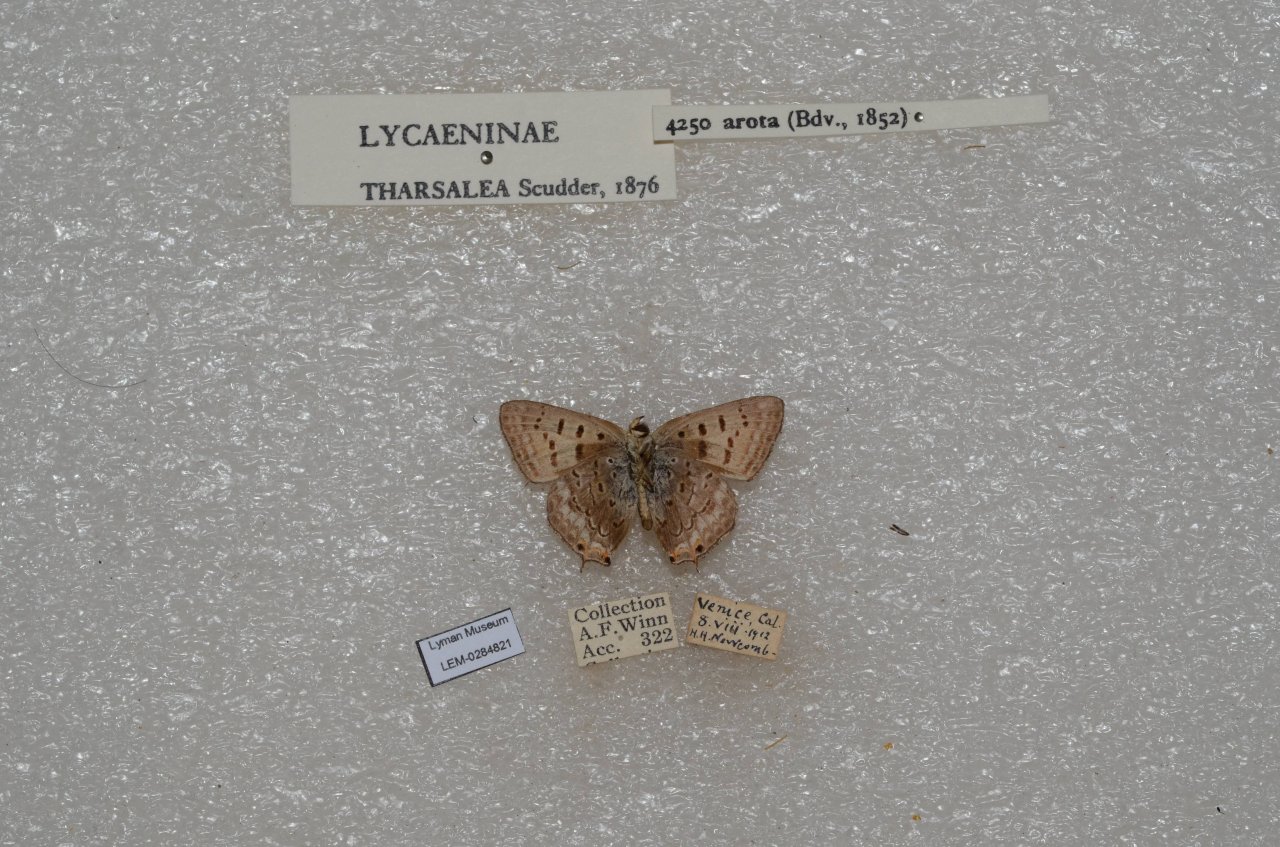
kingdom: Animalia
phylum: Arthropoda
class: Insecta
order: Lepidoptera
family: Sesiidae
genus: Sesia
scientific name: Sesia Lycaena arota
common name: Tailed Copper
